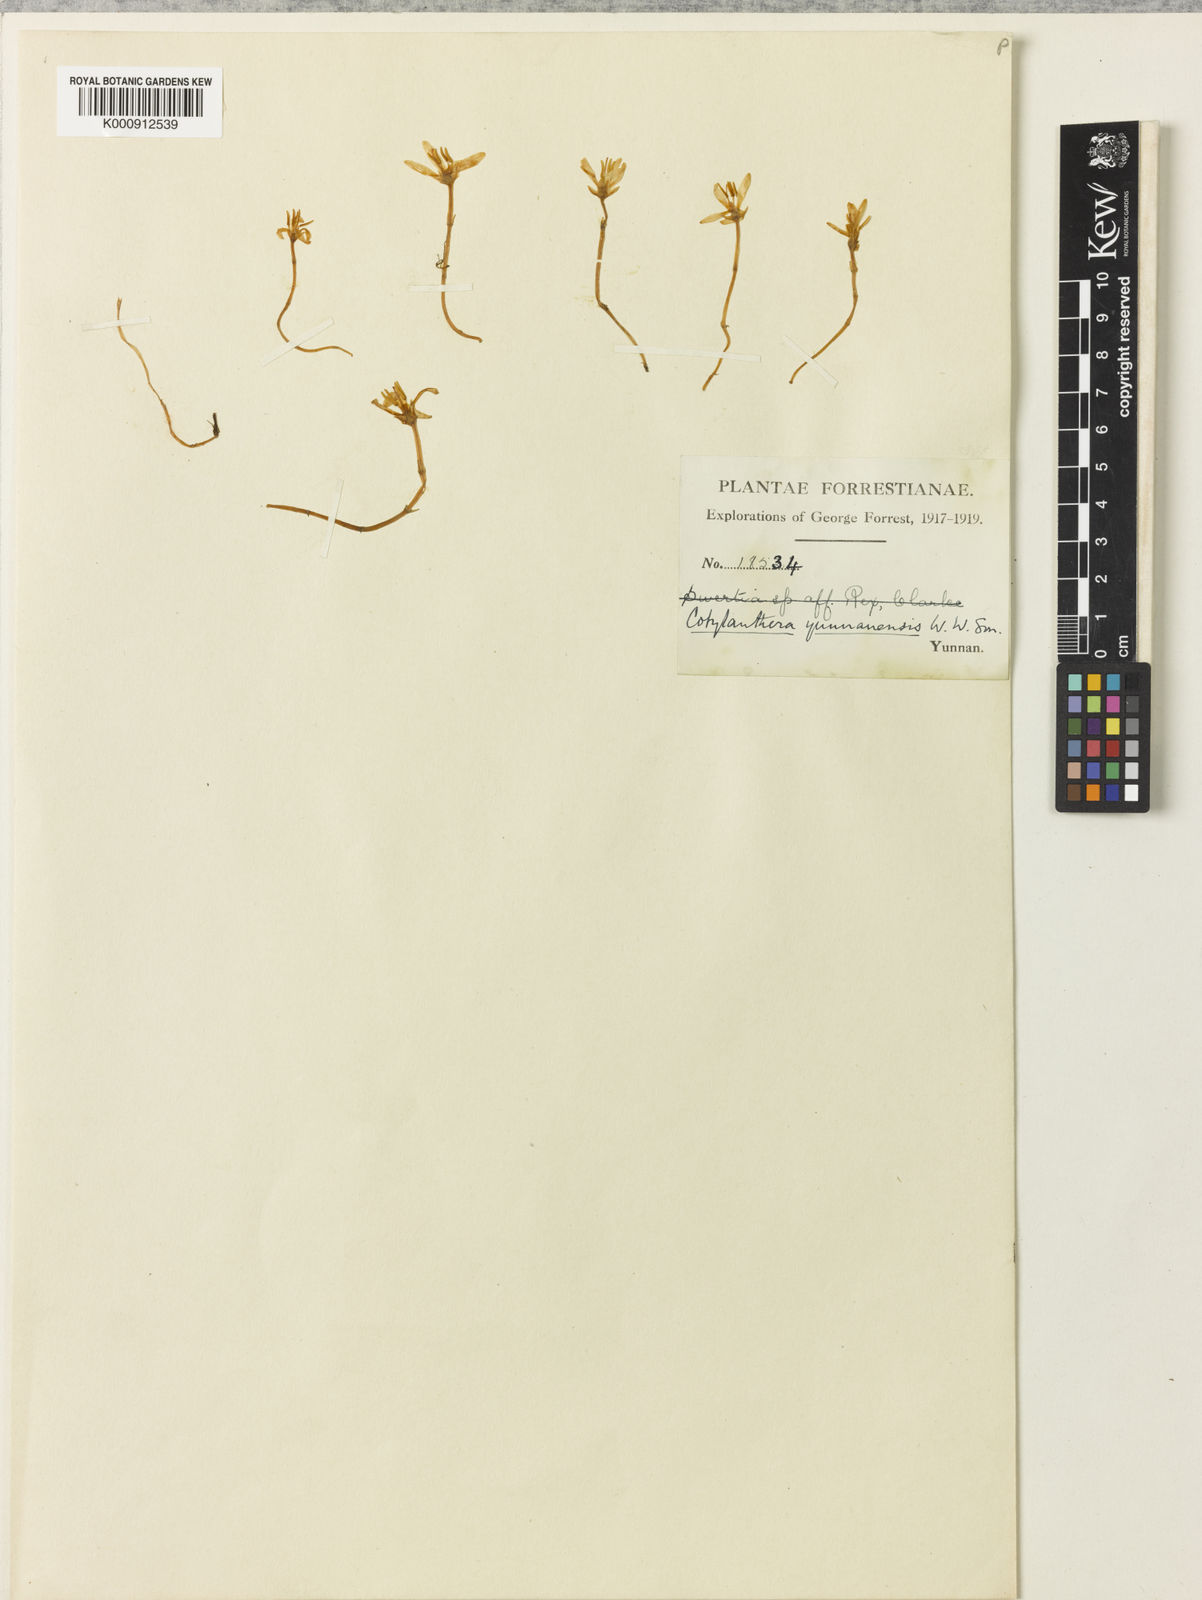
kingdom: Plantae
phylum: Tracheophyta
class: Magnoliopsida
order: Gentianales
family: Gentianaceae
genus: Exacum
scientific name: Exacum paucisquamum
